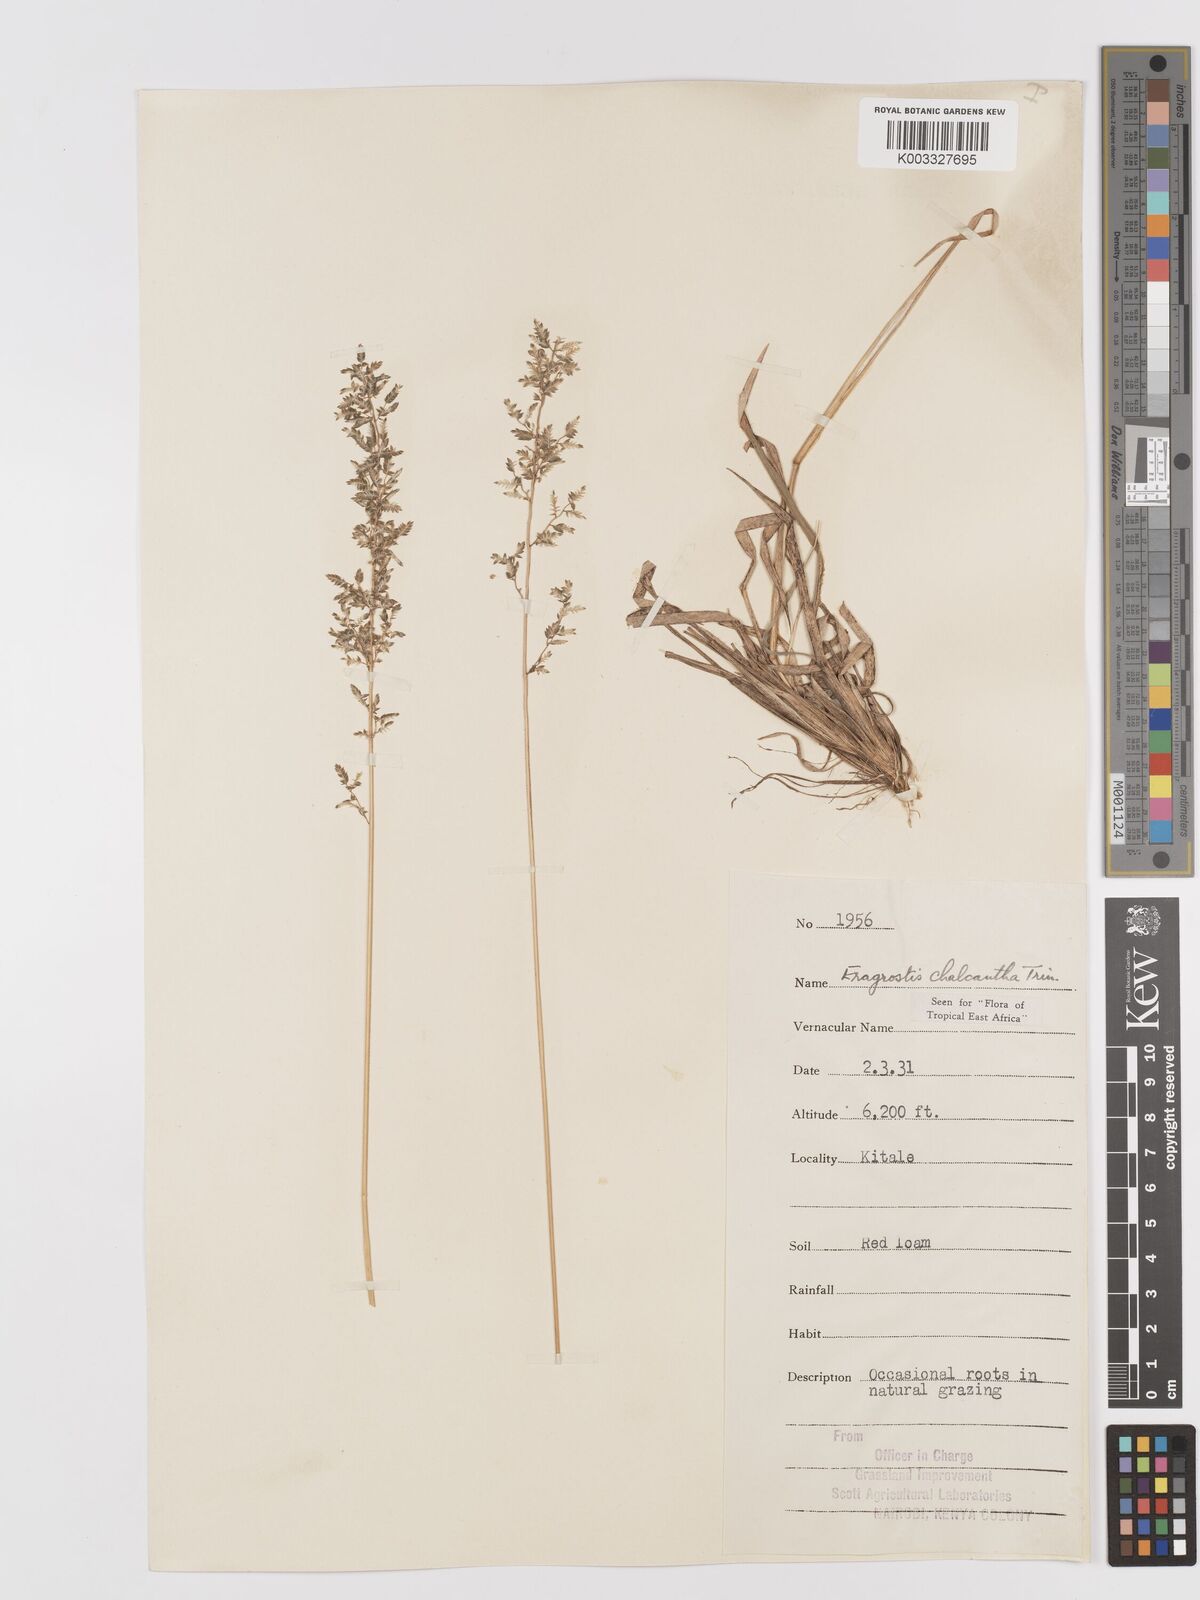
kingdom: Plantae
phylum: Tracheophyta
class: Liliopsida
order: Poales
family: Poaceae
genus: Eragrostis
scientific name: Eragrostis racemosa
